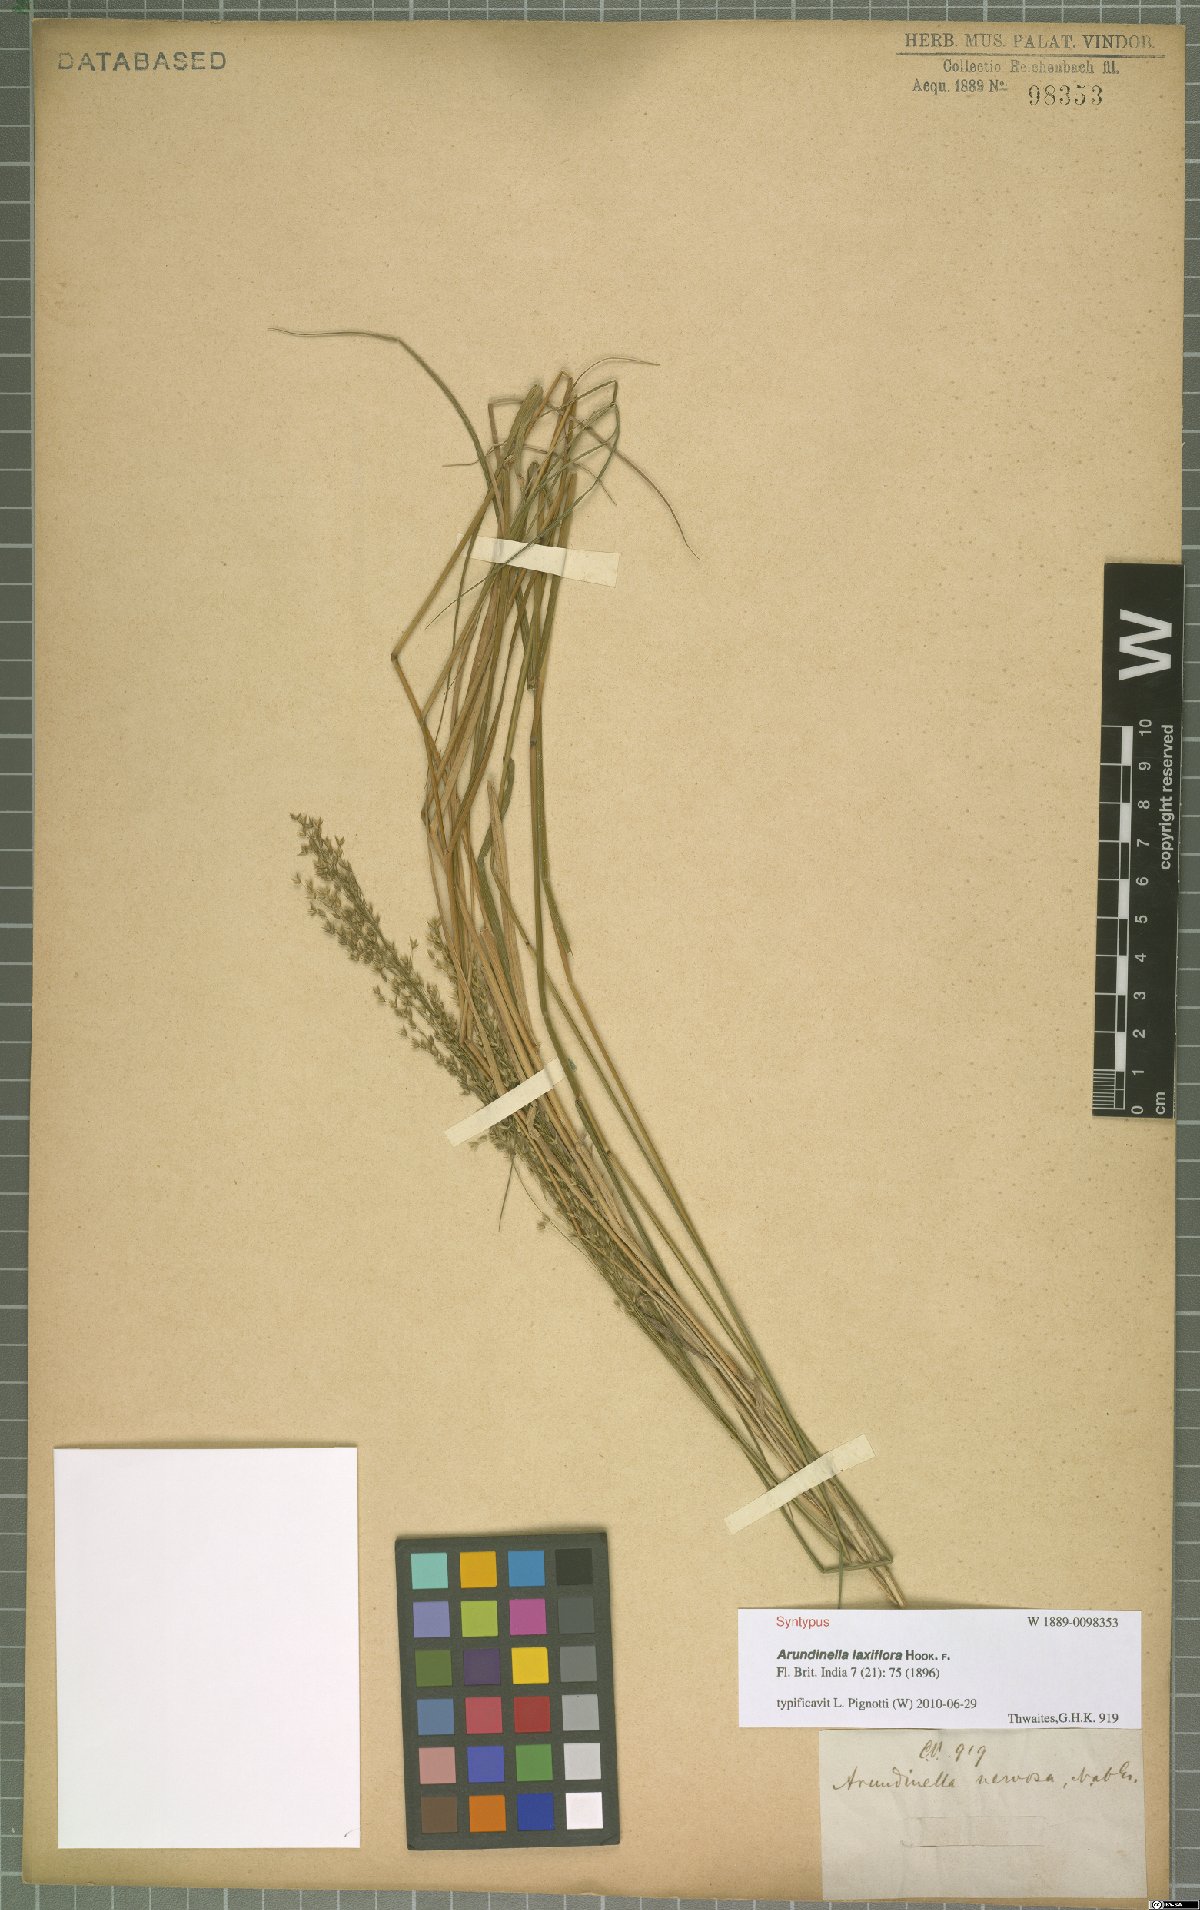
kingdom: Plantae
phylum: Tracheophyta
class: Liliopsida
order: Poales
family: Poaceae
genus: Arundinella
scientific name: Arundinella laxiflora
